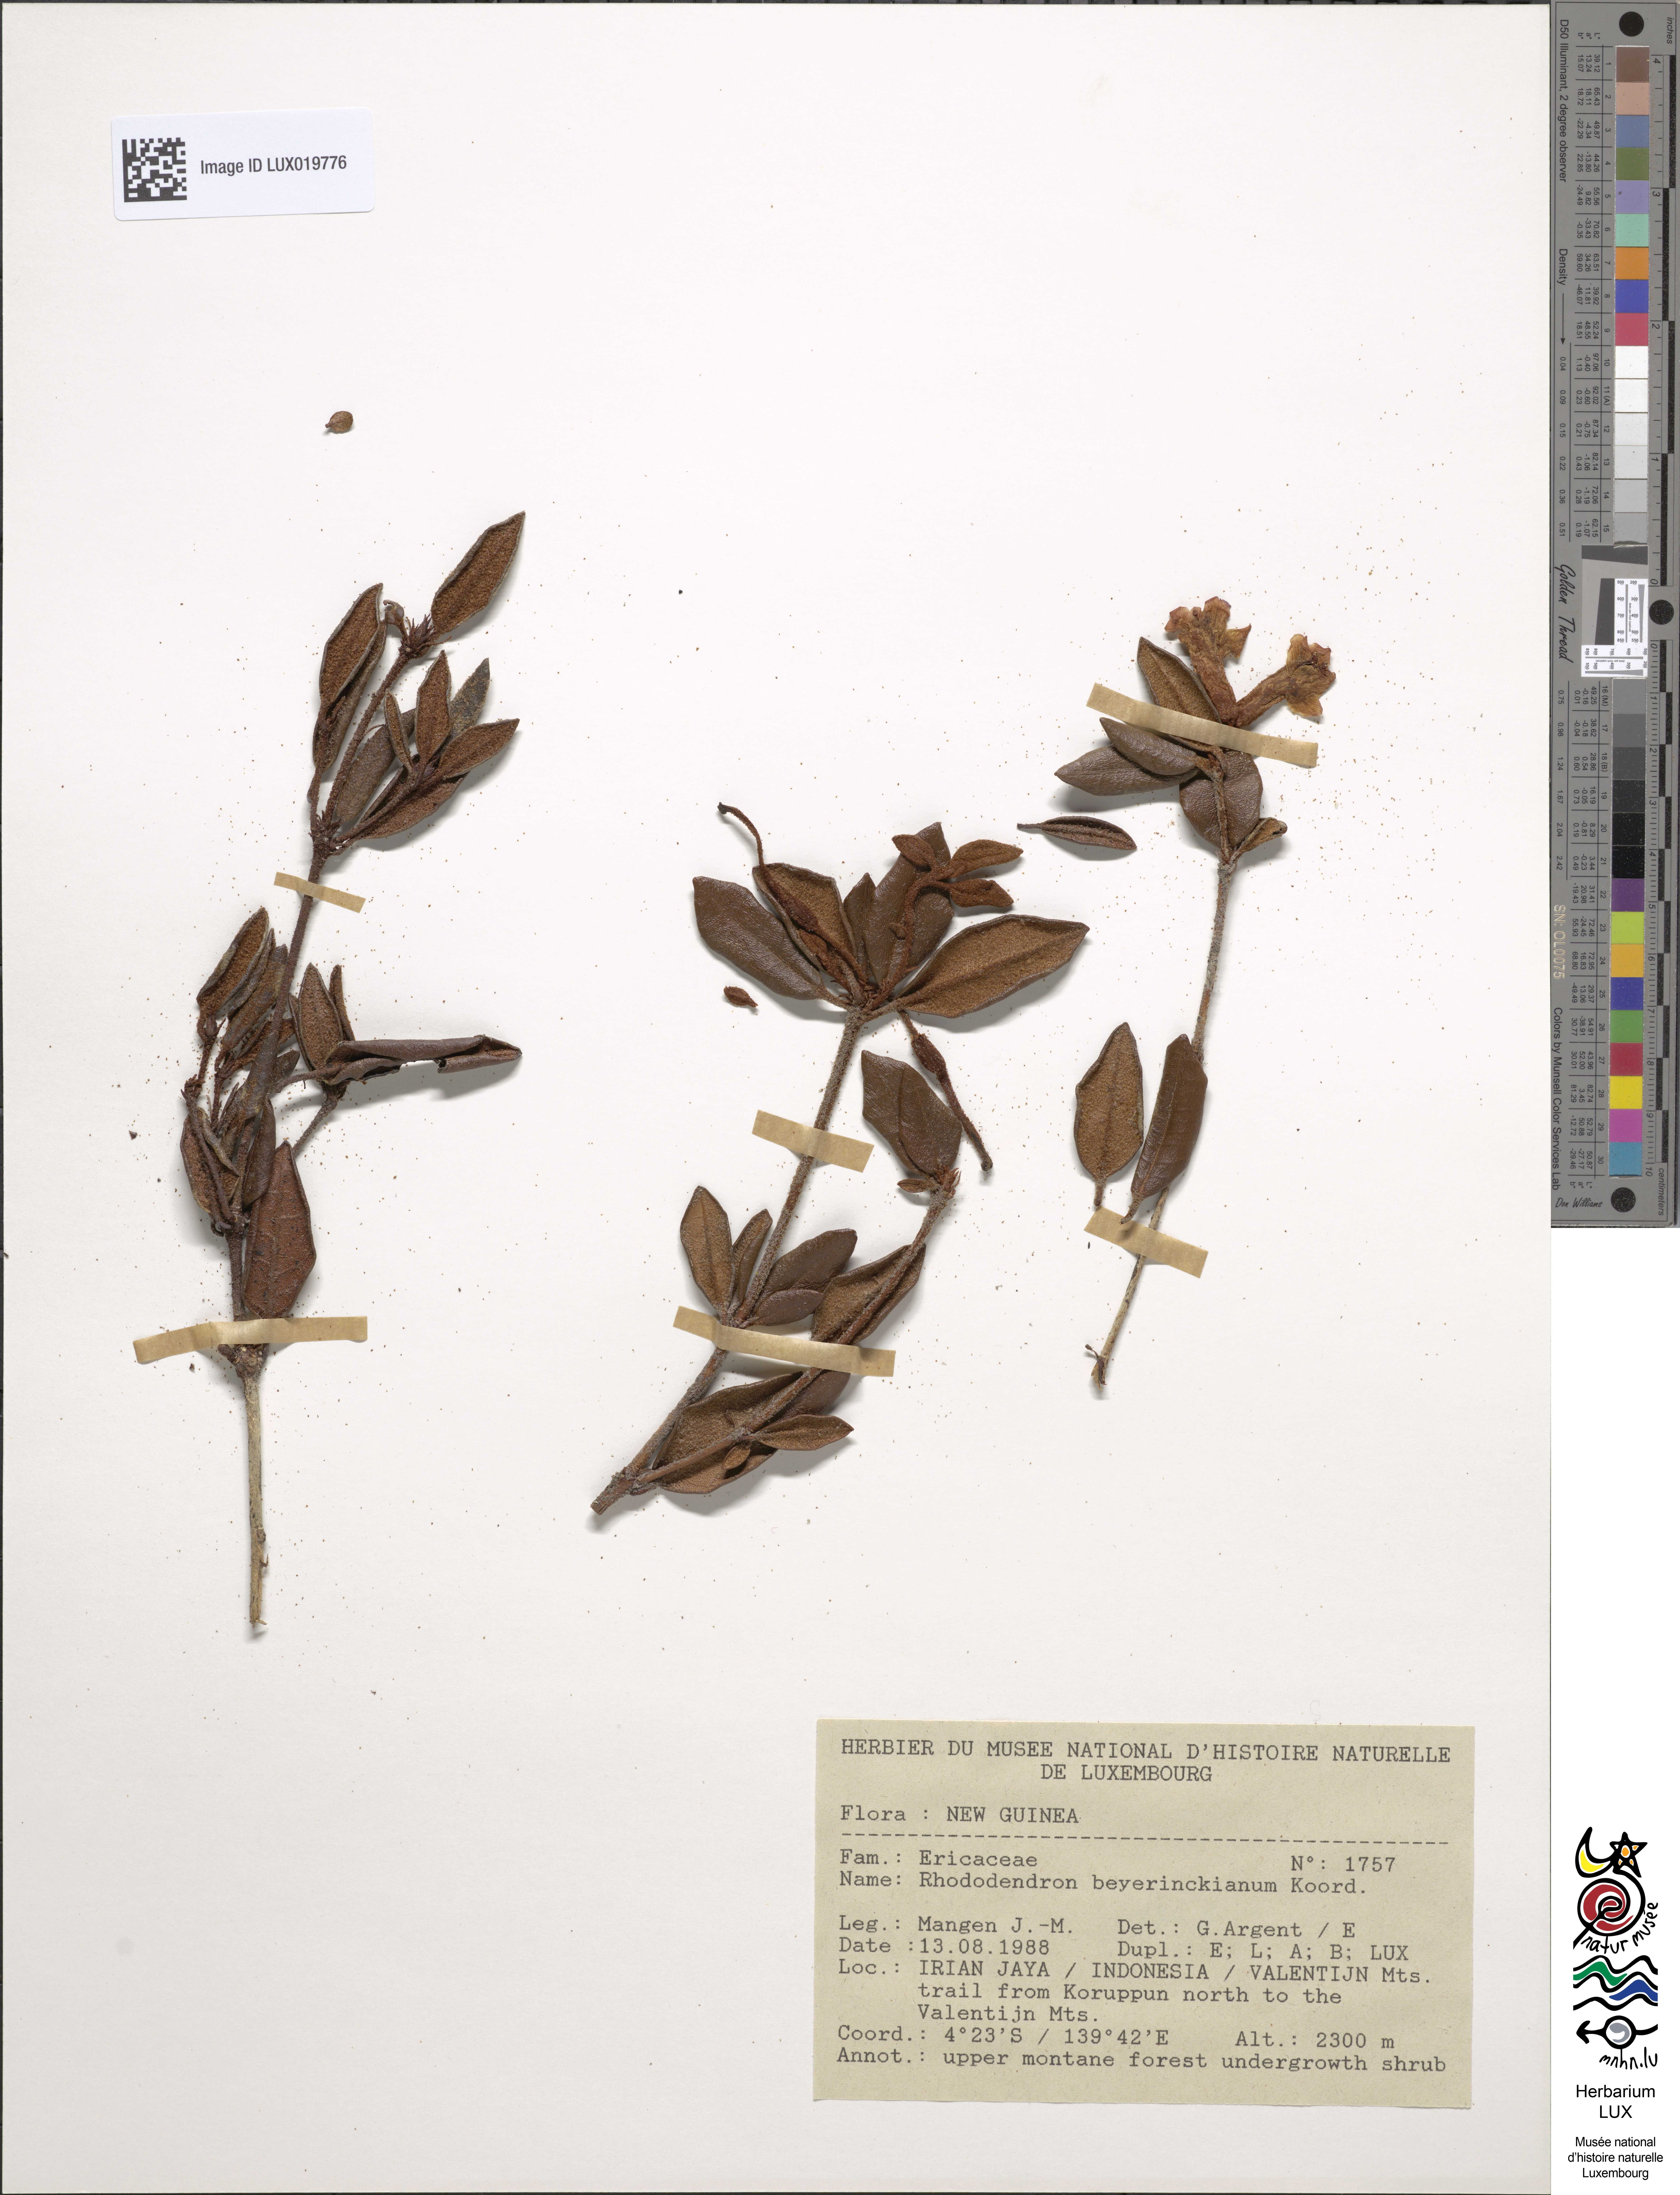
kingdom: Plantae
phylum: Tracheophyta
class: Magnoliopsida
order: Ericales
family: Ericaceae
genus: Rhododendron
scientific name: Rhododendron beyerinckianum
